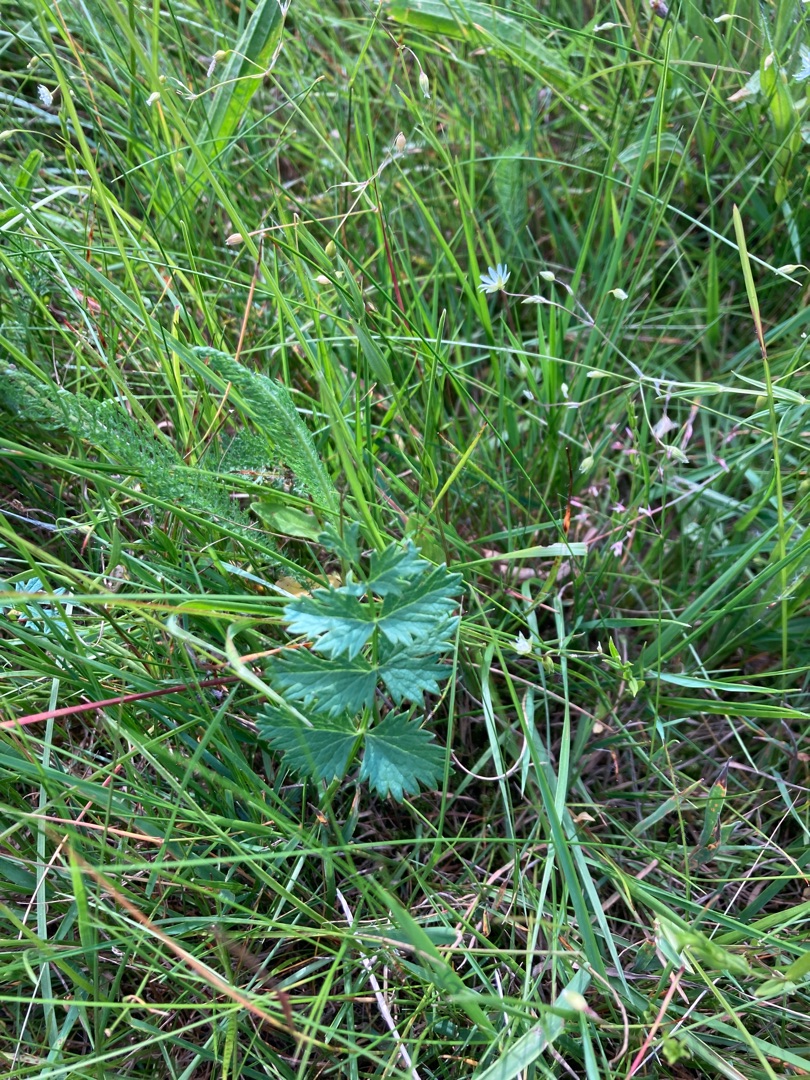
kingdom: Plantae
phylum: Tracheophyta
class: Magnoliopsida
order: Apiales
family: Apiaceae
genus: Pimpinella
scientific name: Pimpinella saxifraga
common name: Almindelig pimpinelle
